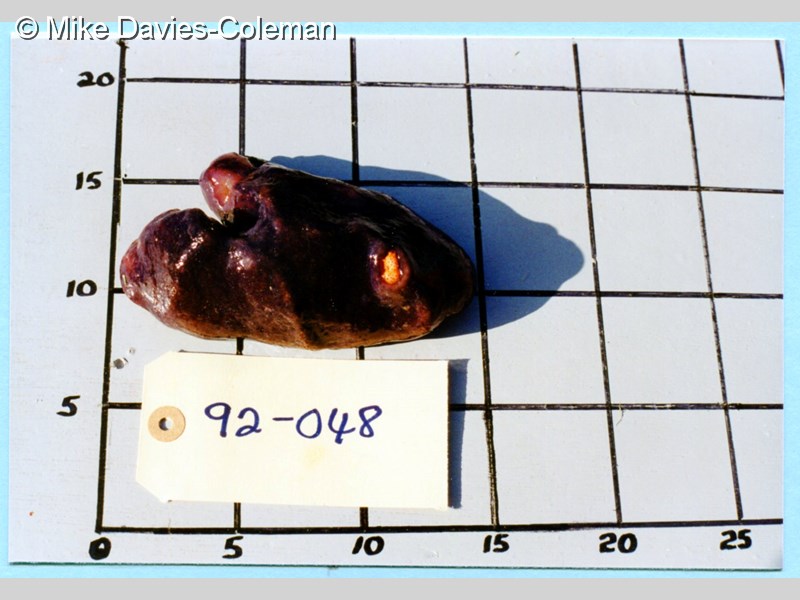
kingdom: Animalia
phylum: Chordata
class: Ascidiacea
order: Aplousobranchia
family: Didemnidae
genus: Didemnum
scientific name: Didemnum
